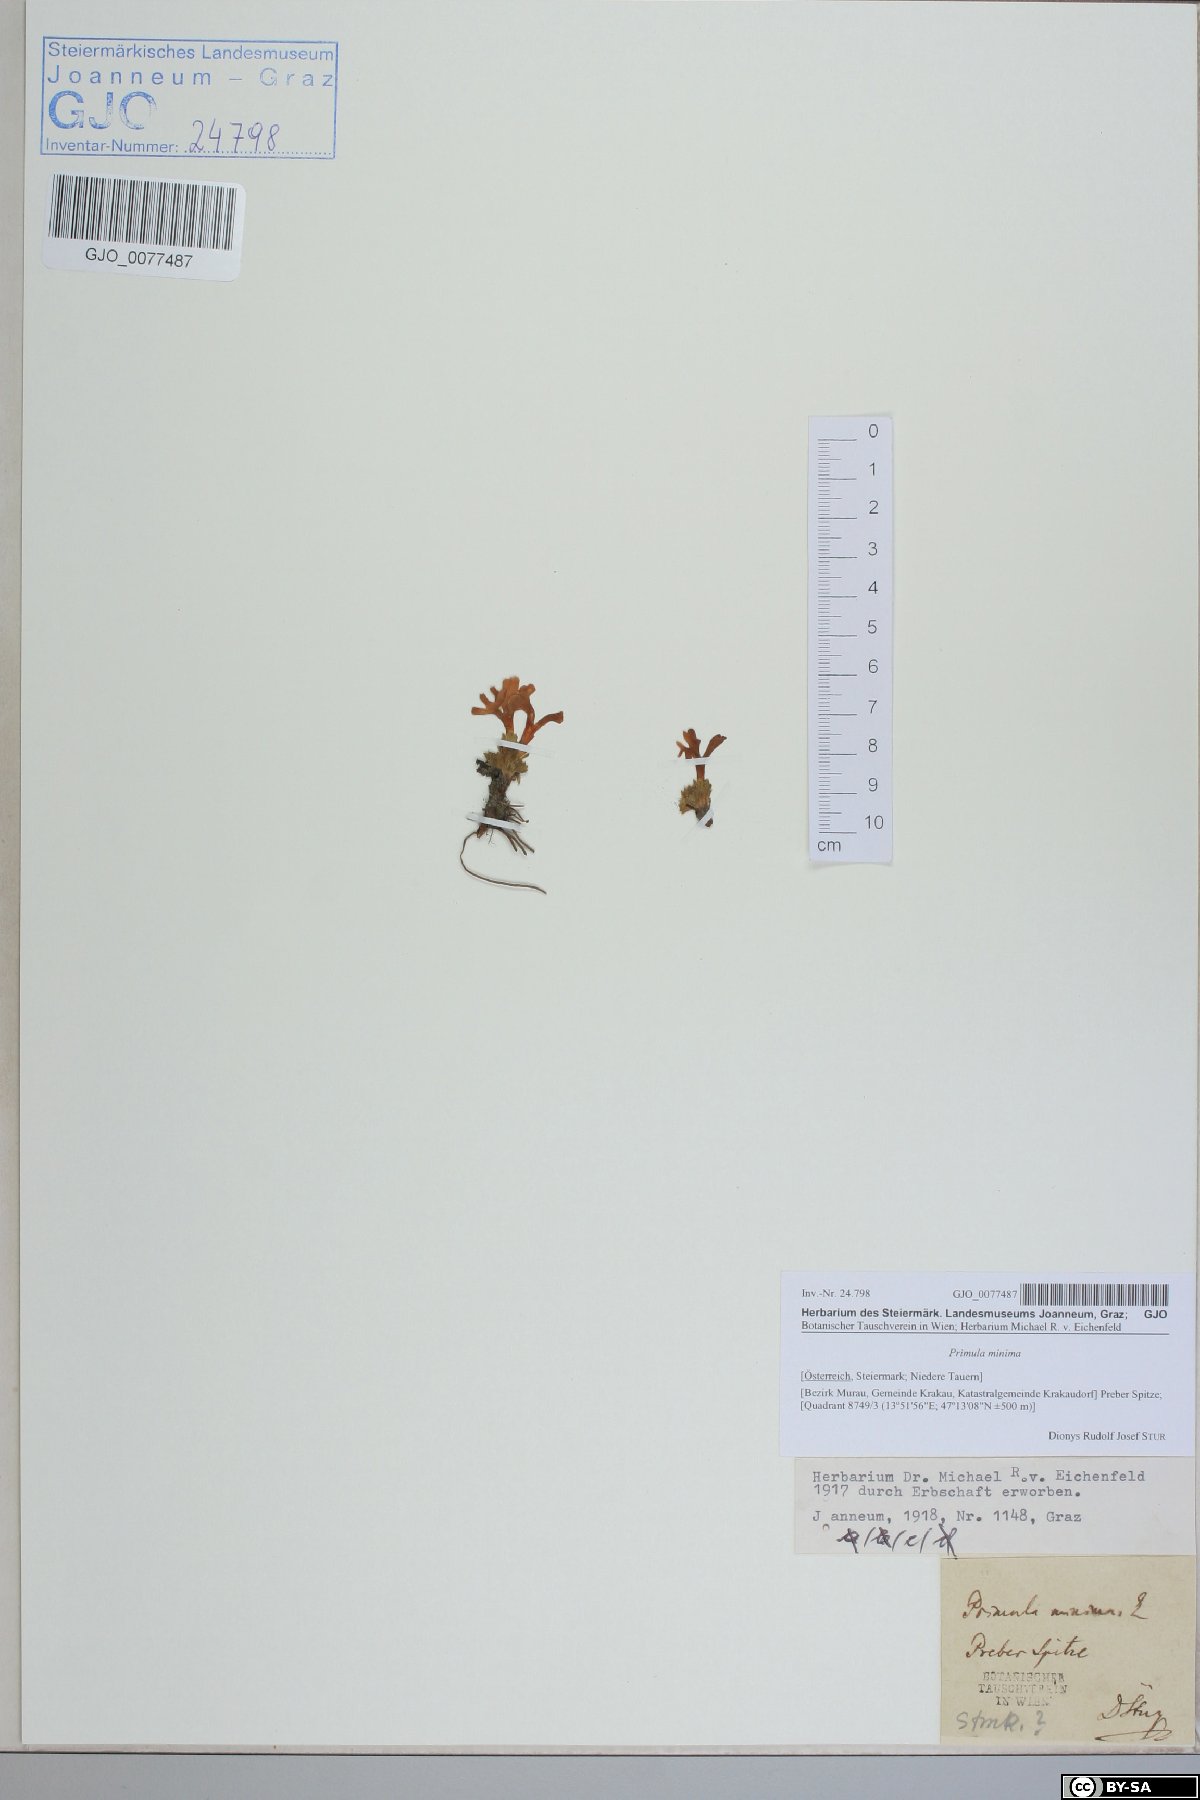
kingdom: Plantae
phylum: Tracheophyta
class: Magnoliopsida
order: Ericales
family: Primulaceae
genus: Primula
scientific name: Primula minima
